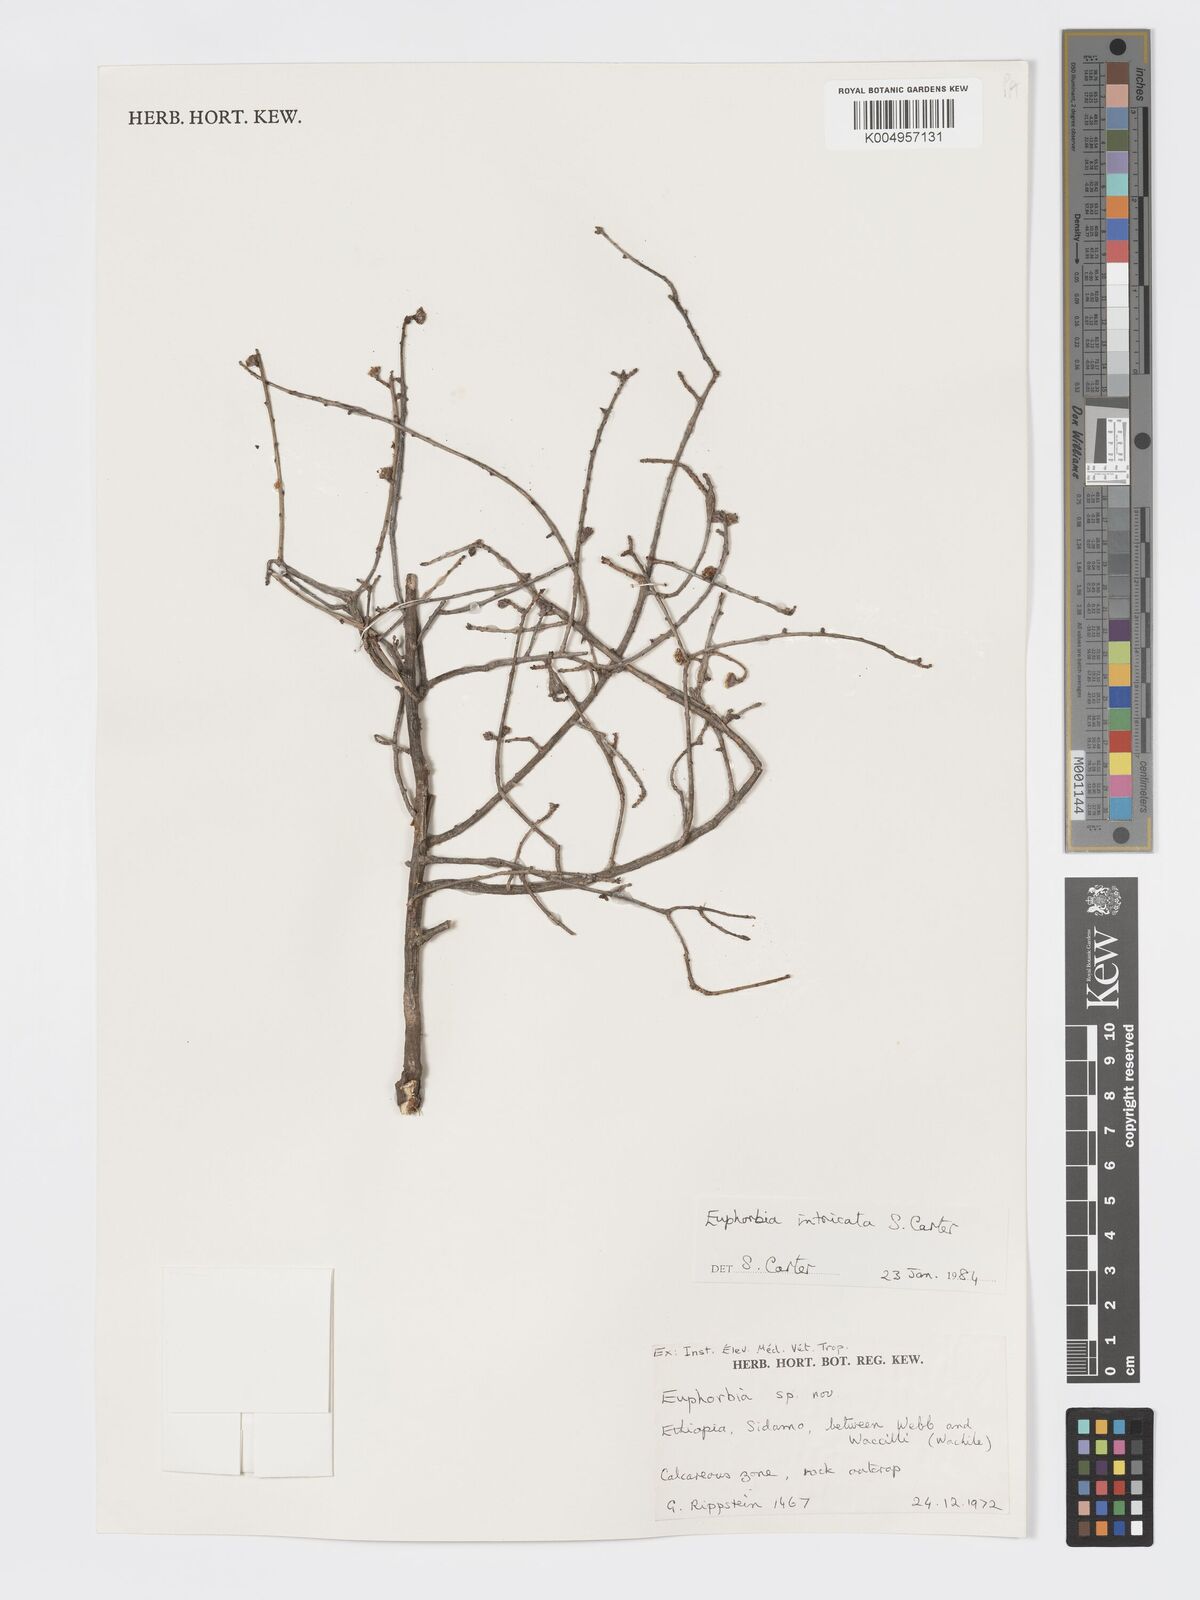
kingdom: Plantae
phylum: Tracheophyta
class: Magnoliopsida
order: Malpighiales
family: Euphorbiaceae
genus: Euphorbia
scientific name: Euphorbia intricata
